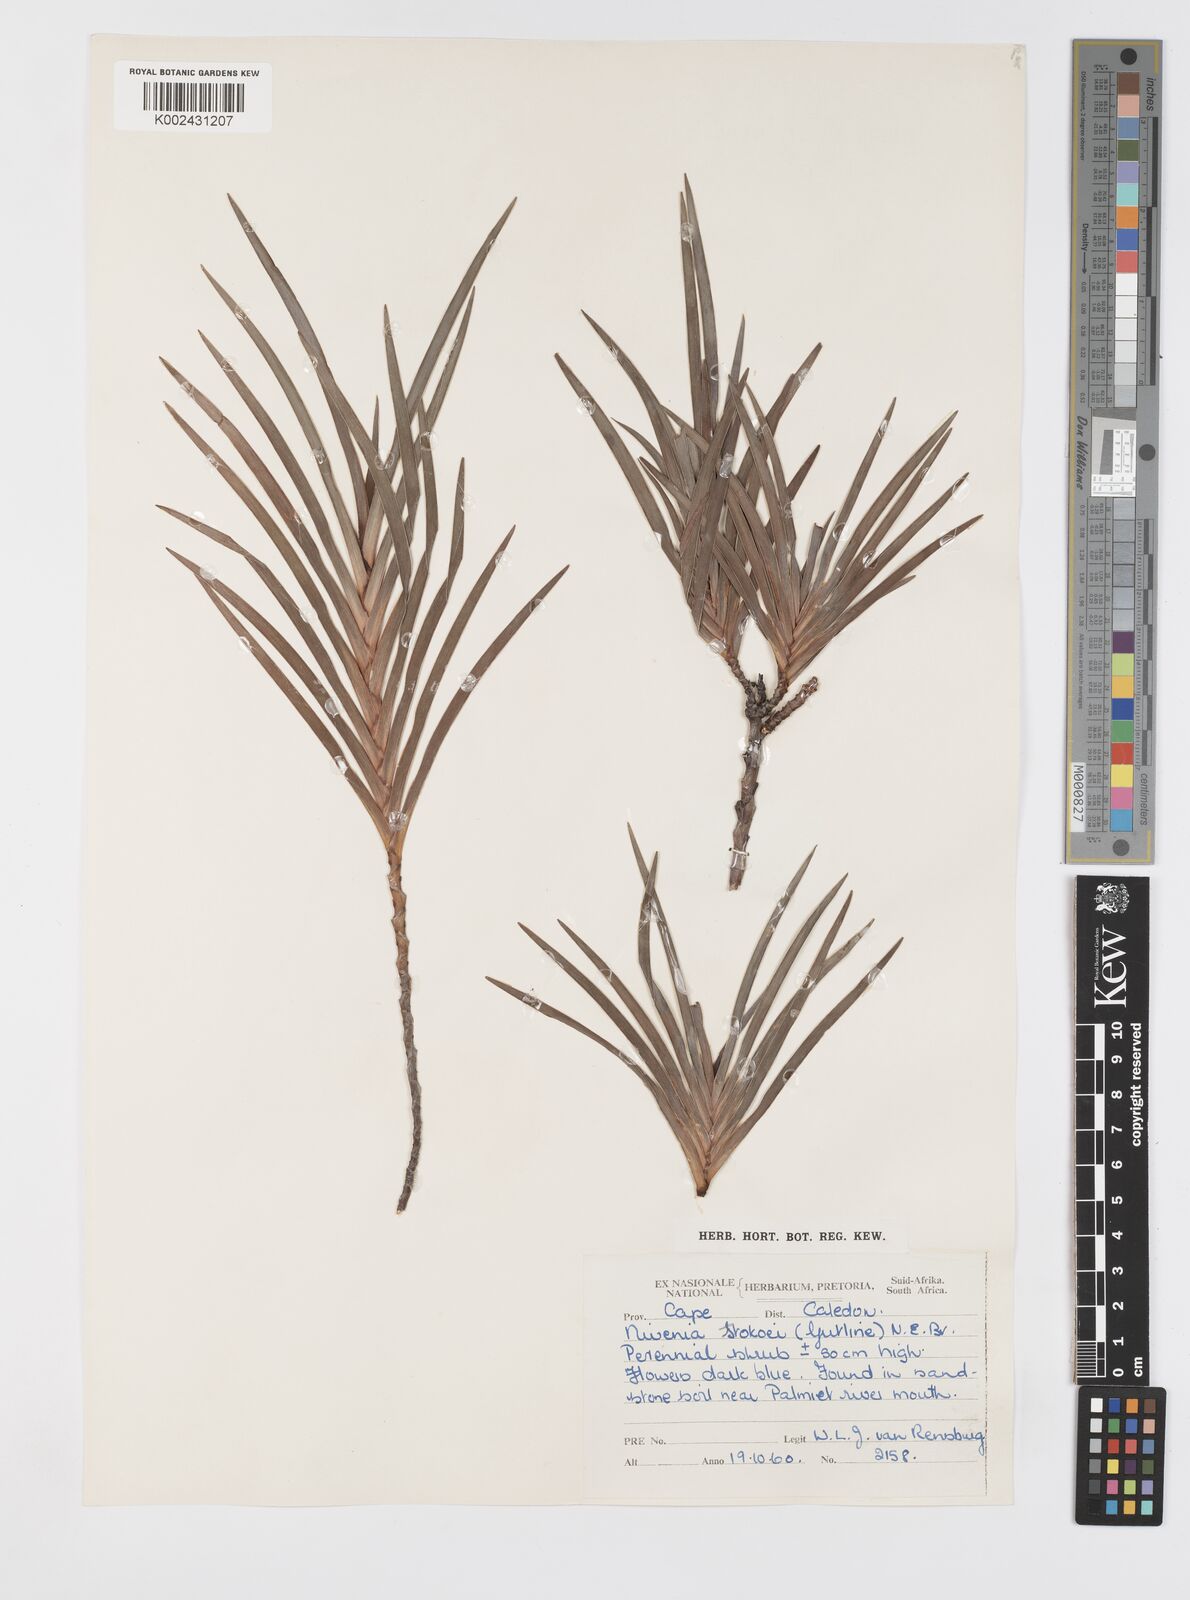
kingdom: Plantae
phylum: Tracheophyta
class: Liliopsida
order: Asparagales
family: Iridaceae
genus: Nivenia
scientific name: Nivenia stokoei
